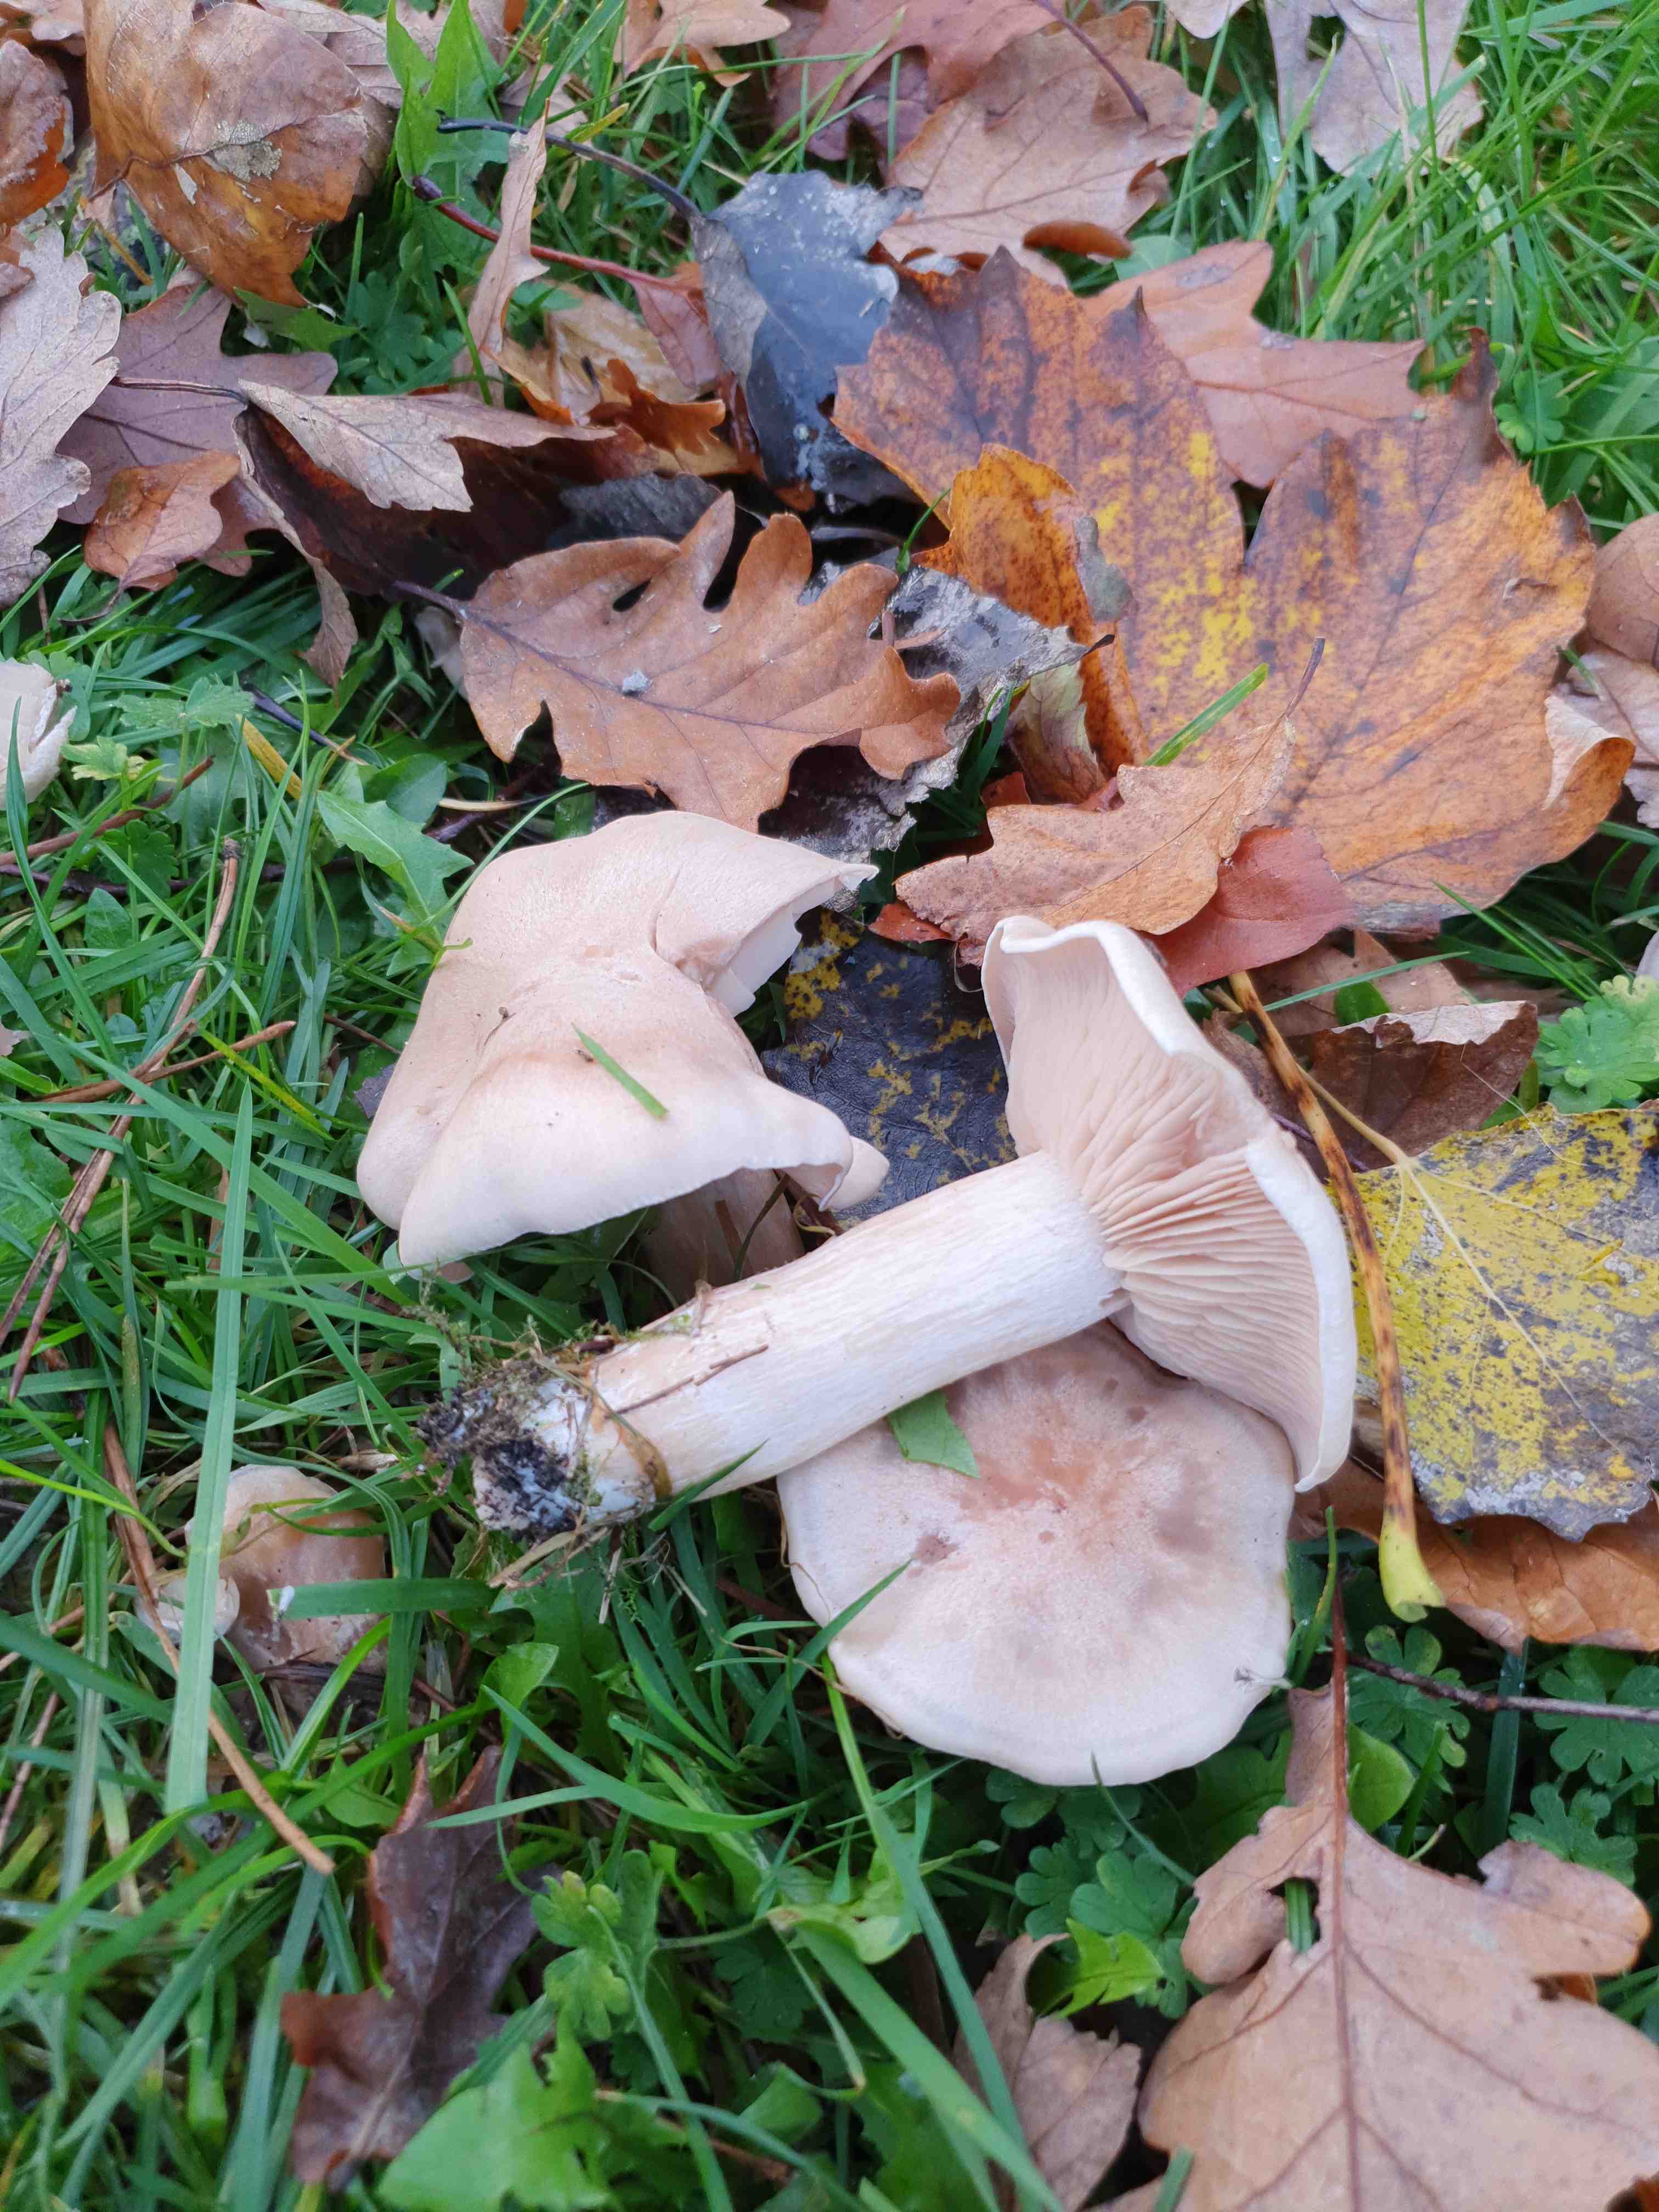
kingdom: Fungi
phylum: Basidiomycota
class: Agaricomycetes
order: Agaricales
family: Tricholomataceae
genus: Lepista
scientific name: Lepista irina
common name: violduftende hekseringshat
